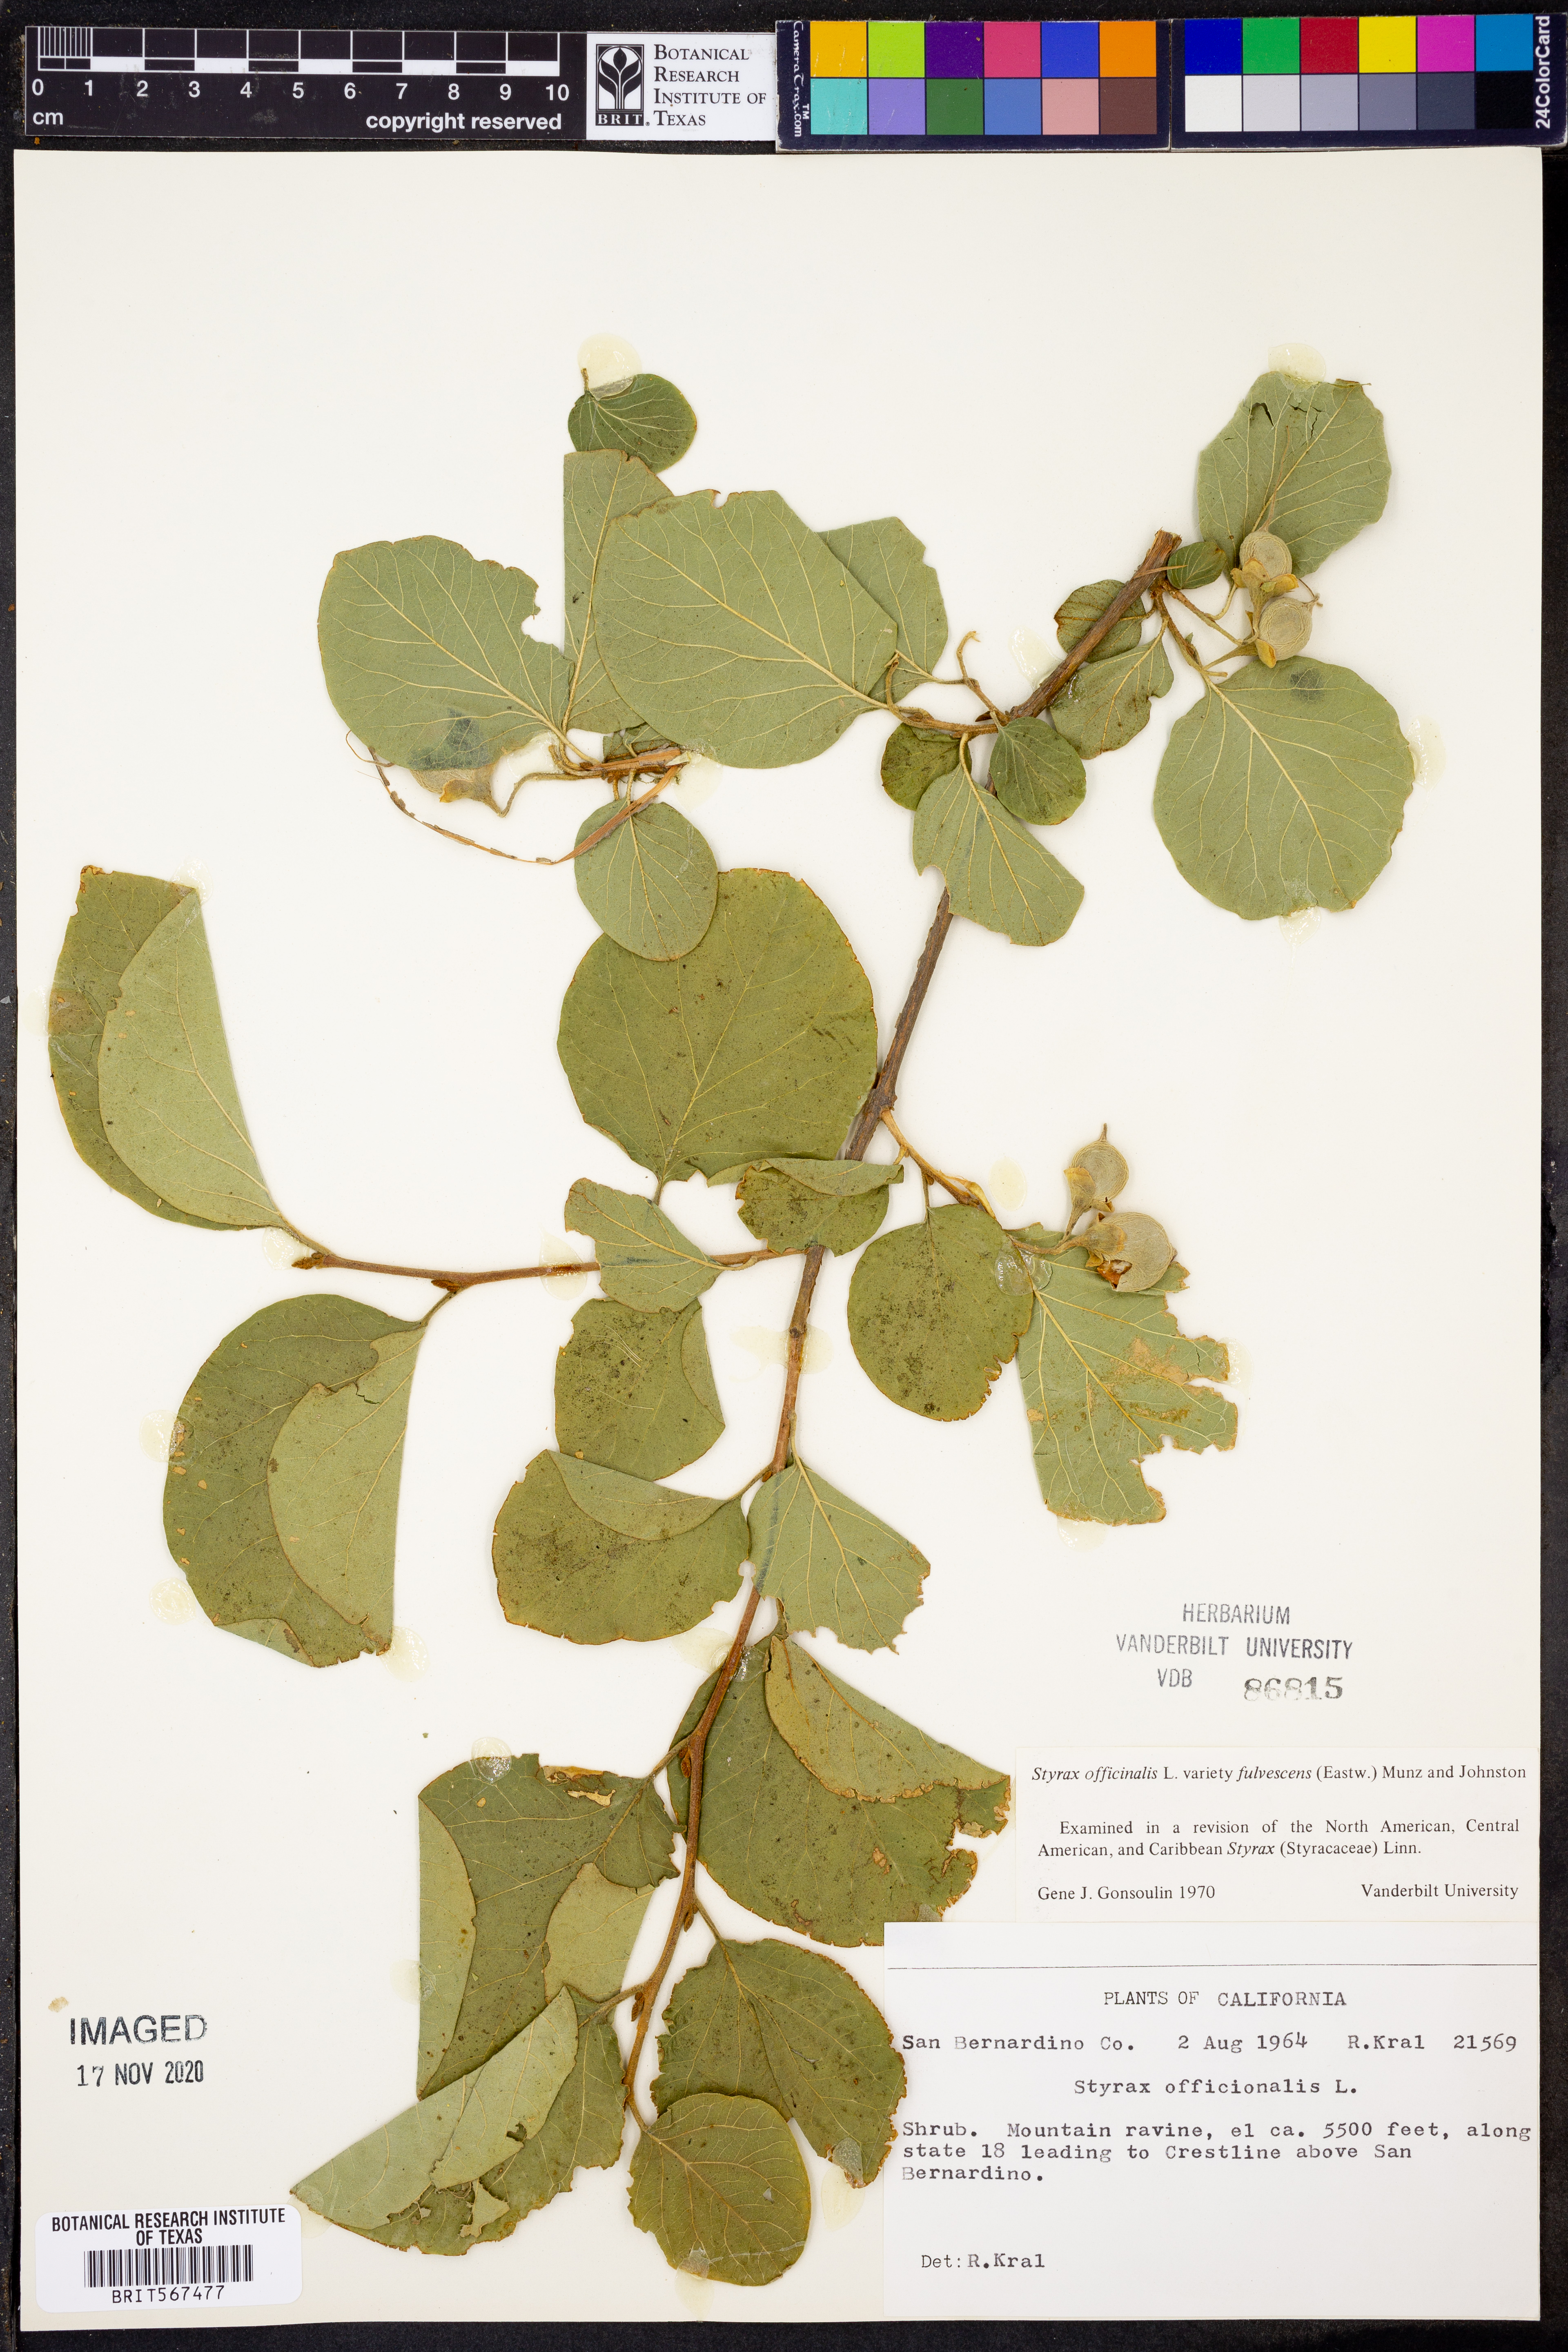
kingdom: Plantae
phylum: Tracheophyta
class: Magnoliopsida
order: Ericales
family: Styracaceae
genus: Styrax
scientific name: Styrax redivivus
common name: California styrax
